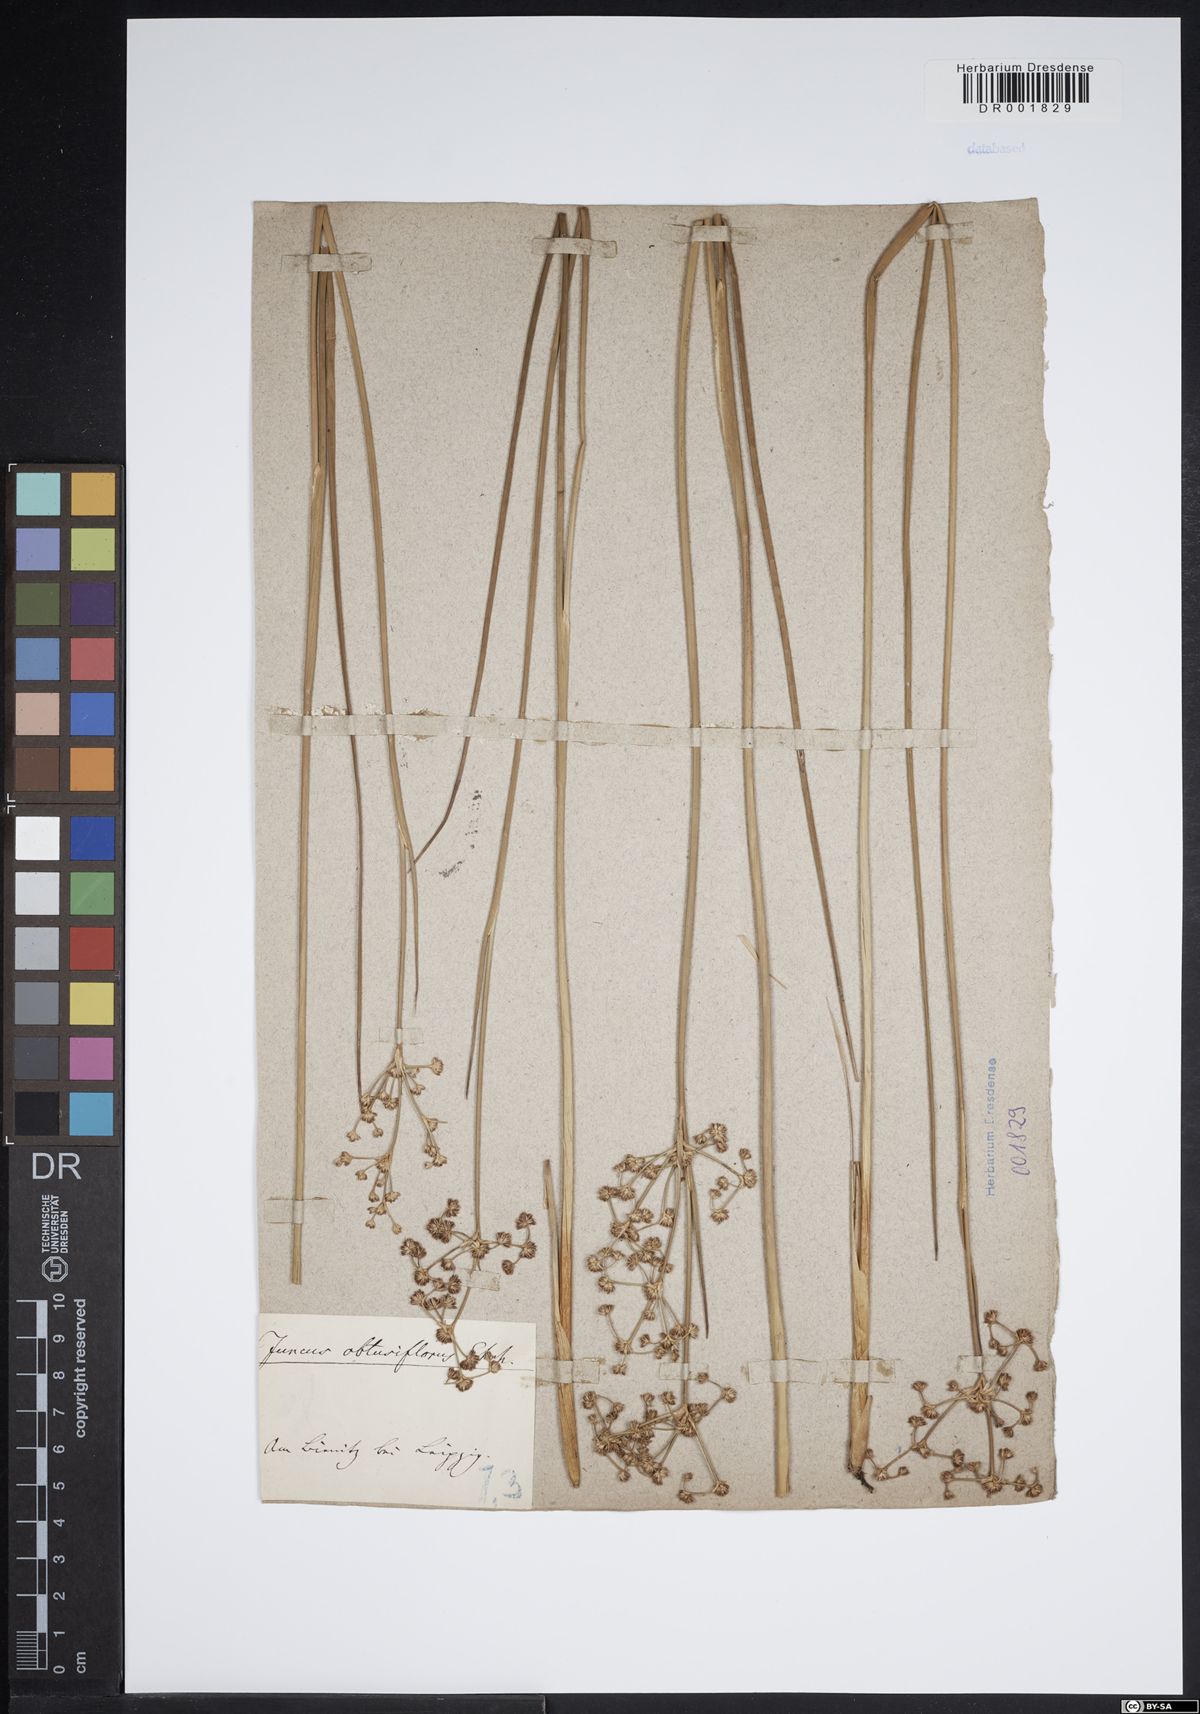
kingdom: Plantae
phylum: Tracheophyta
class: Liliopsida
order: Poales
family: Juncaceae
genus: Juncus
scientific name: Juncus subnodulosus
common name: Blunt-flowered rush
